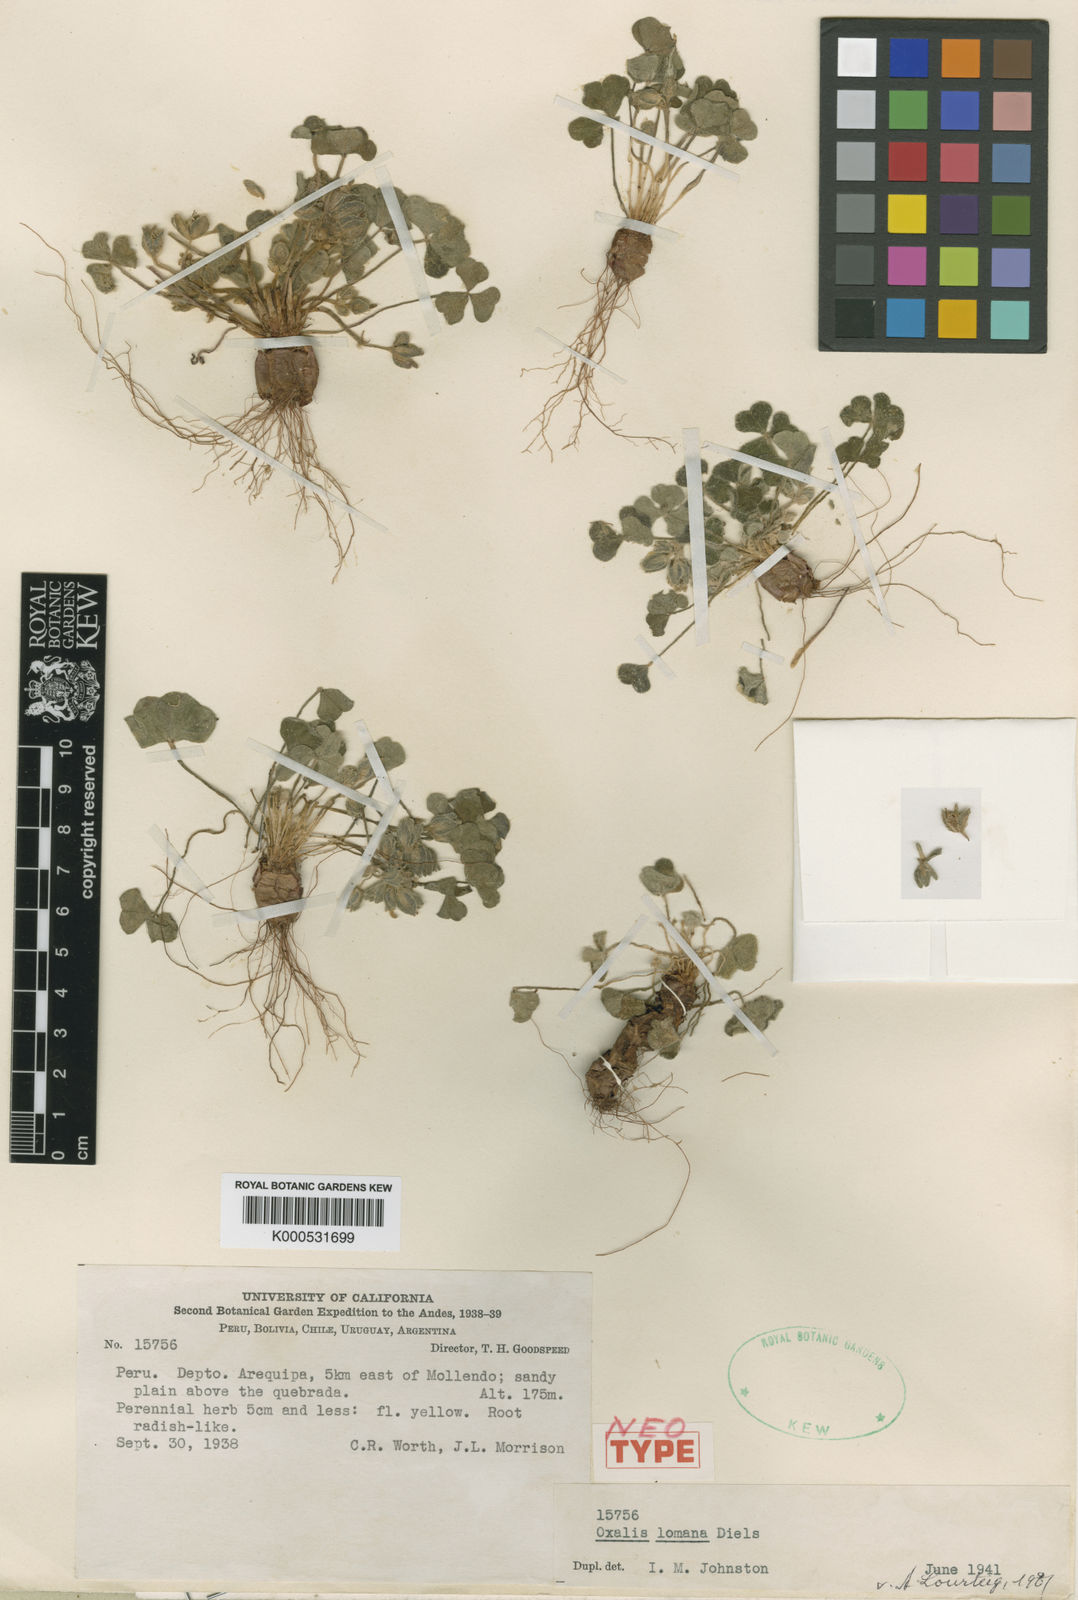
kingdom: Plantae
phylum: Tracheophyta
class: Magnoliopsida
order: Oxalidales
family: Oxalidaceae
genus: Oxalis
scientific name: Oxalis lomana
